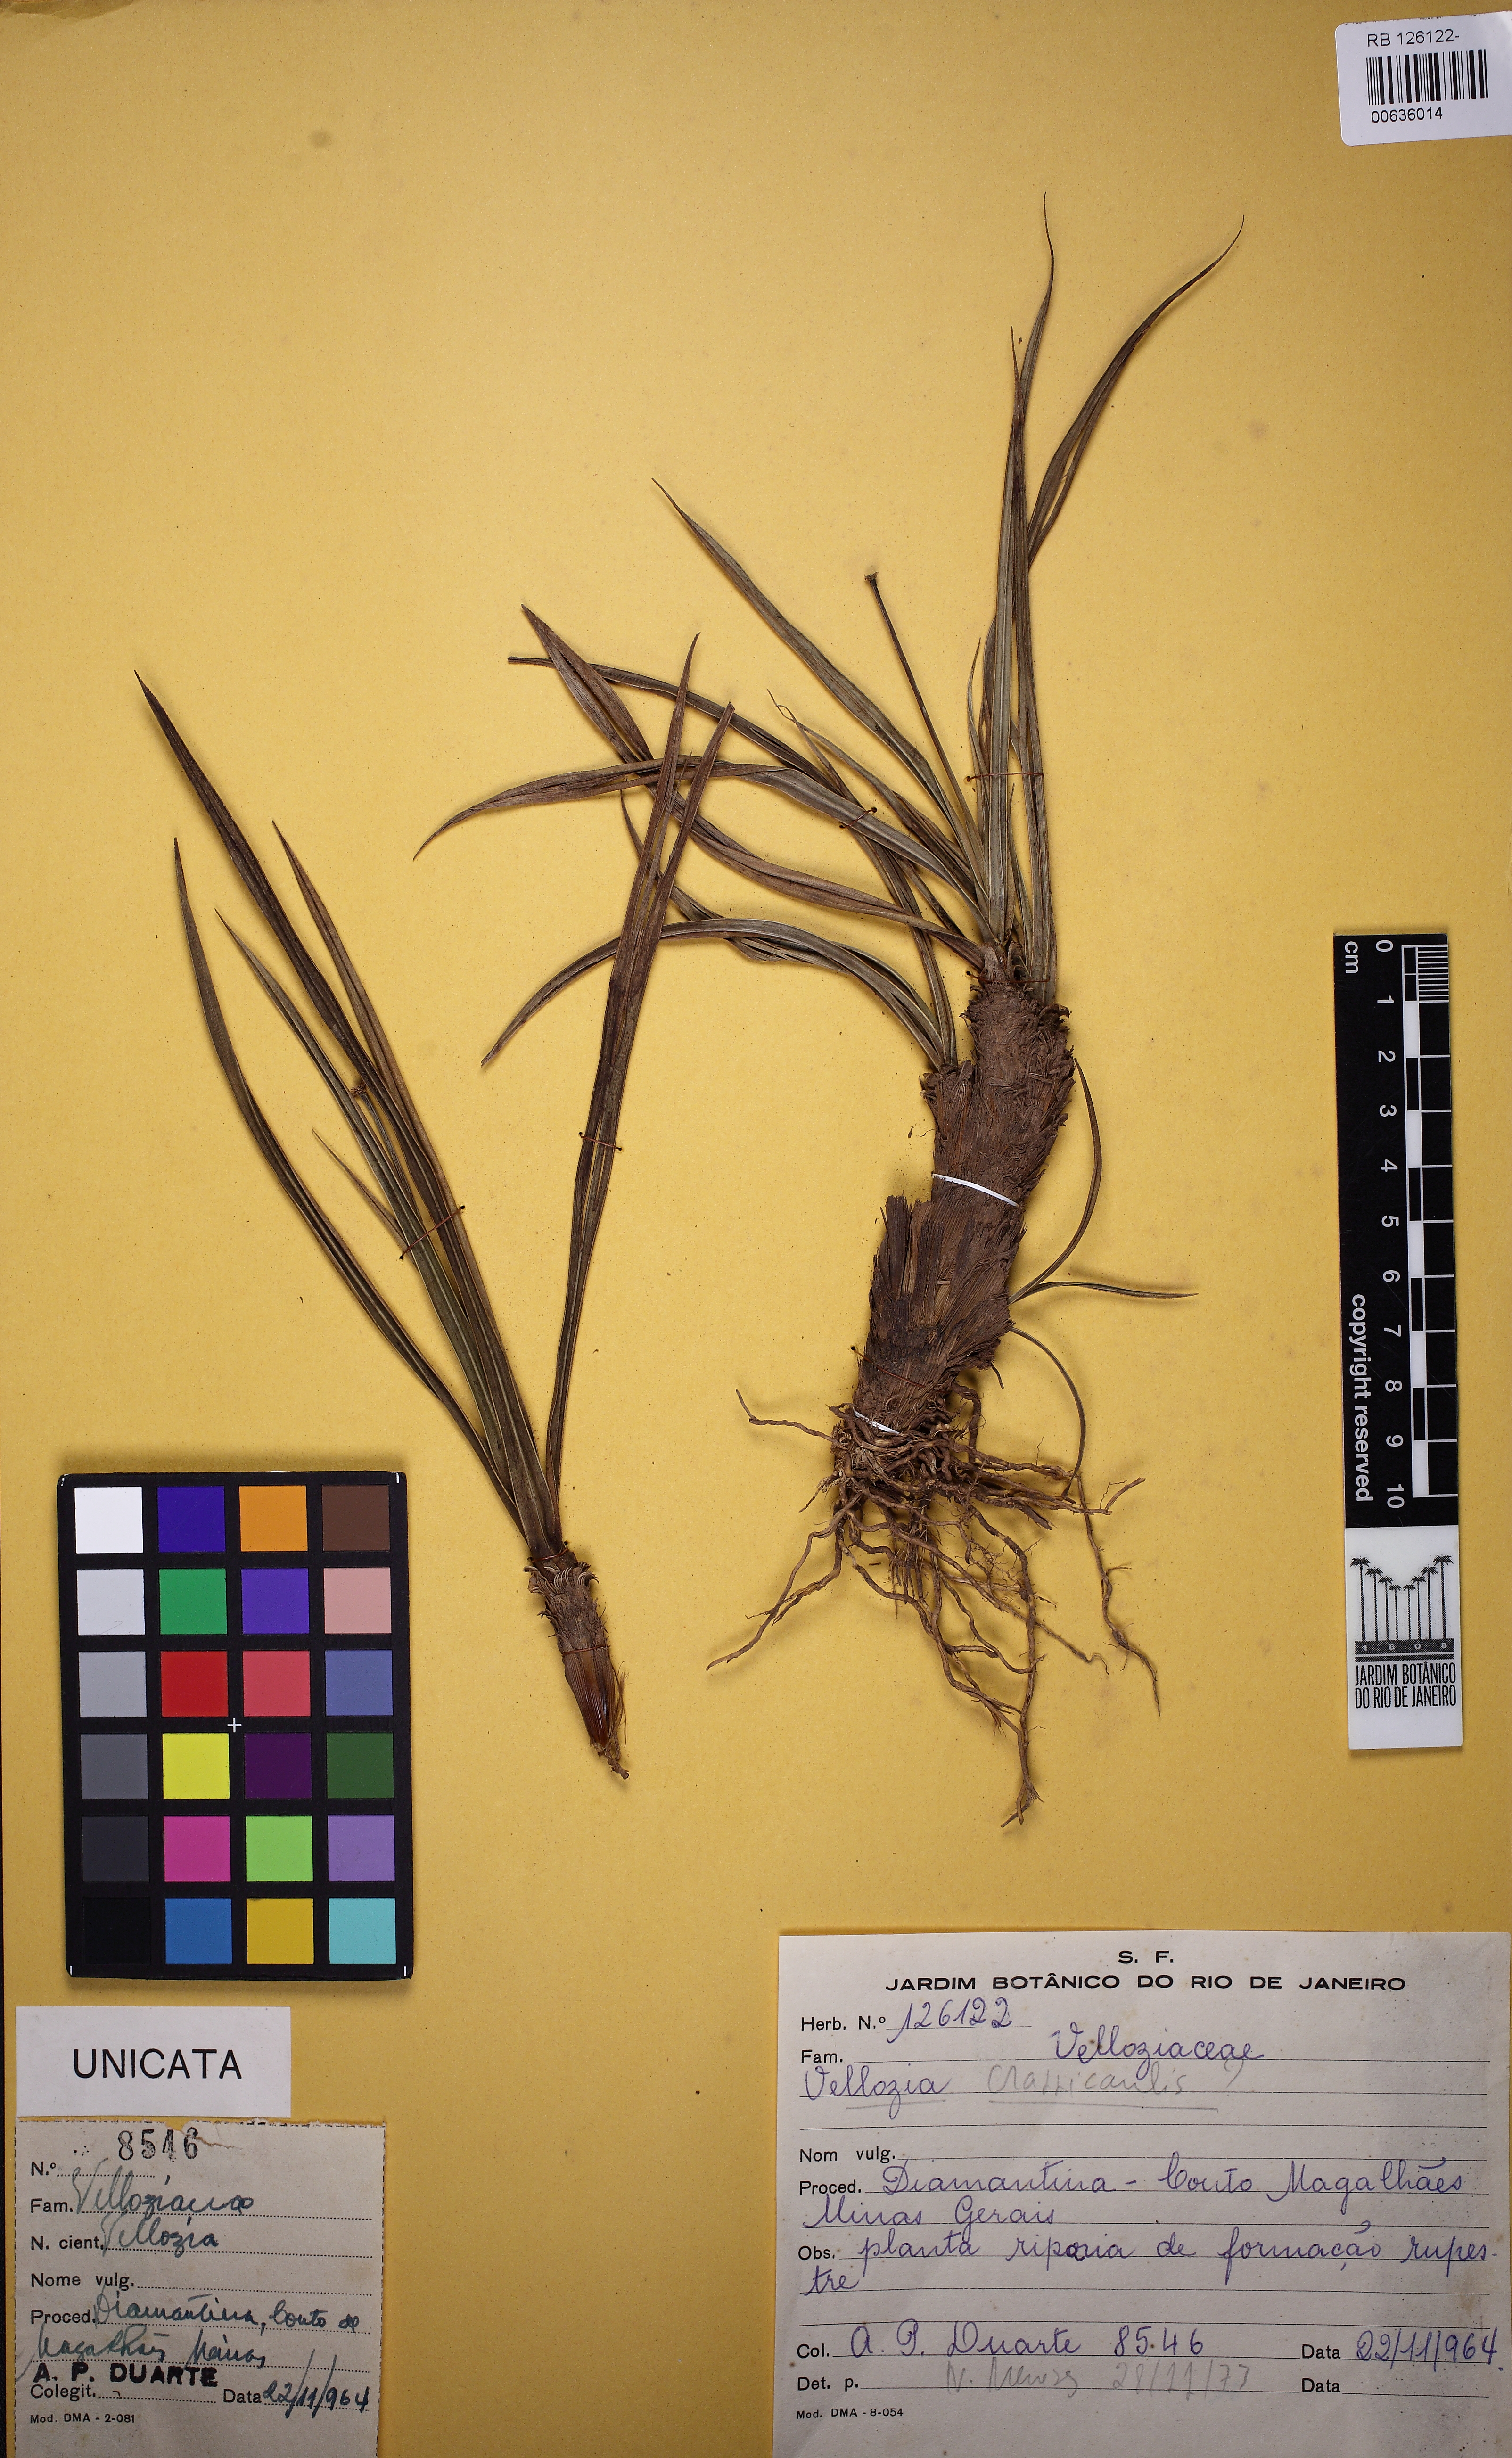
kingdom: Plantae
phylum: Tracheophyta
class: Liliopsida
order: Pandanales
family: Velloziaceae
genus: Vellozia
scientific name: Vellozia albiflora
